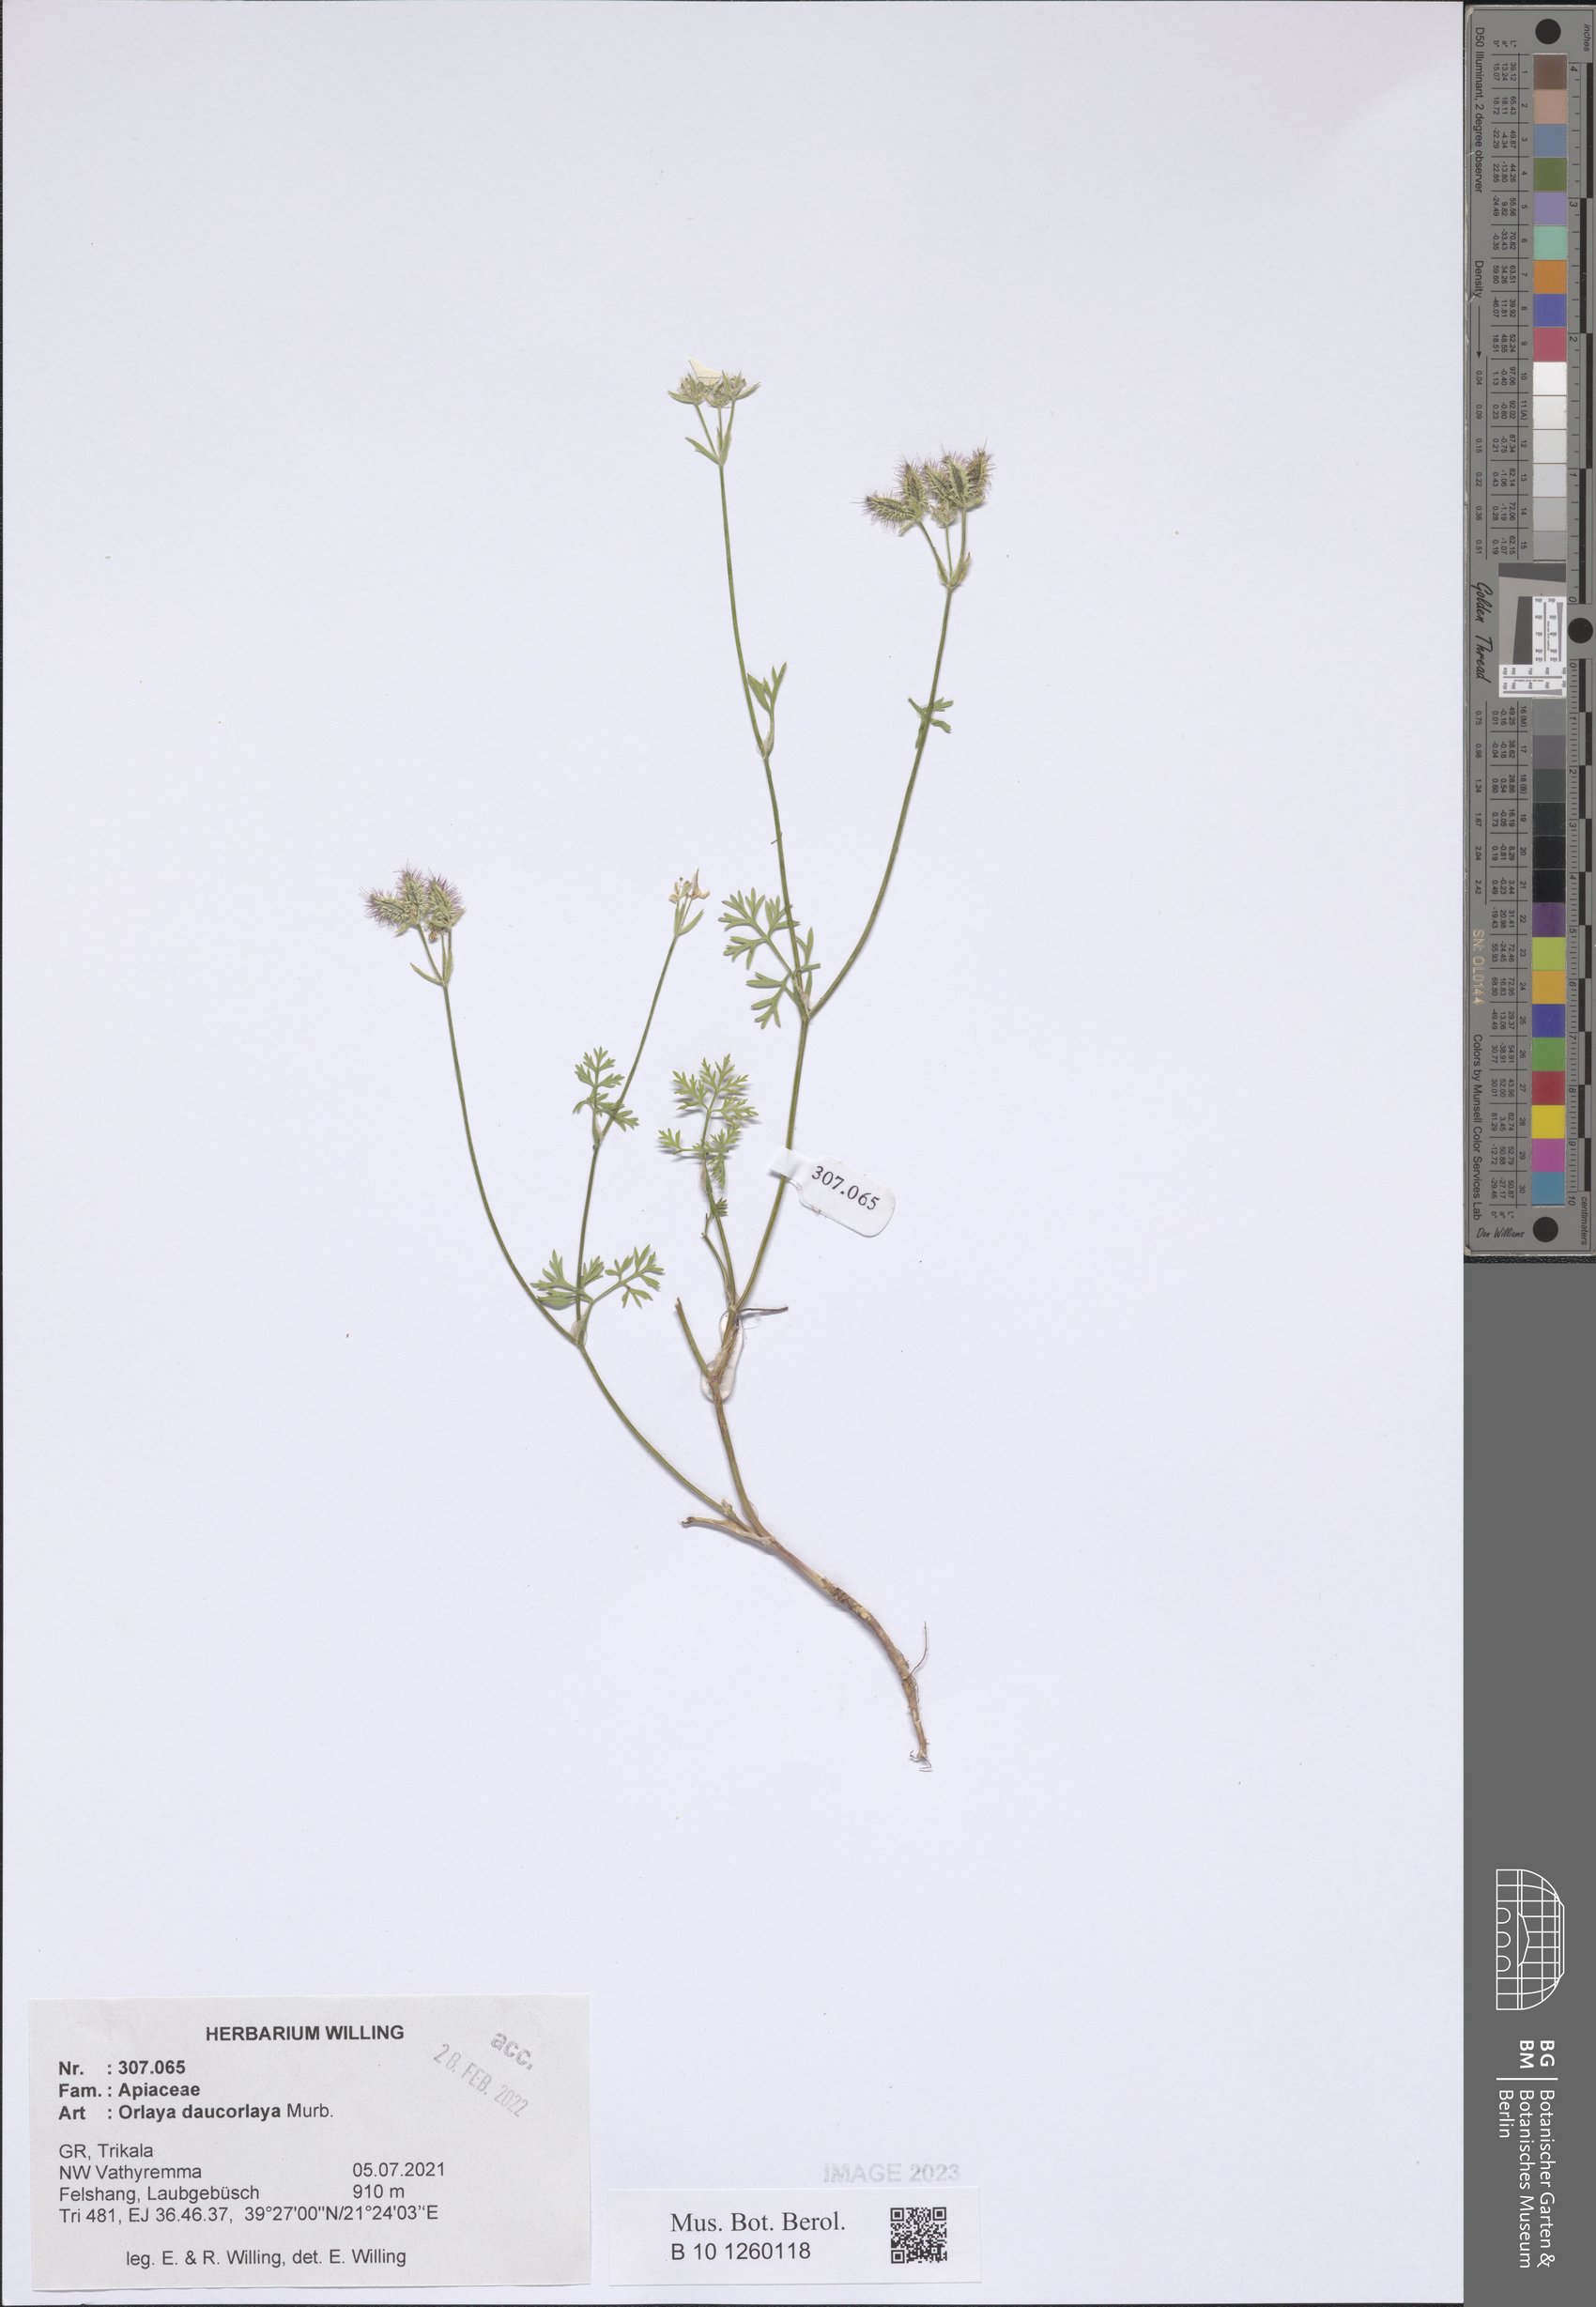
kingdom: Plantae
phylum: Tracheophyta
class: Magnoliopsida
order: Apiales
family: Apiaceae
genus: Orlaya
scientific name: Orlaya daucorlaya
